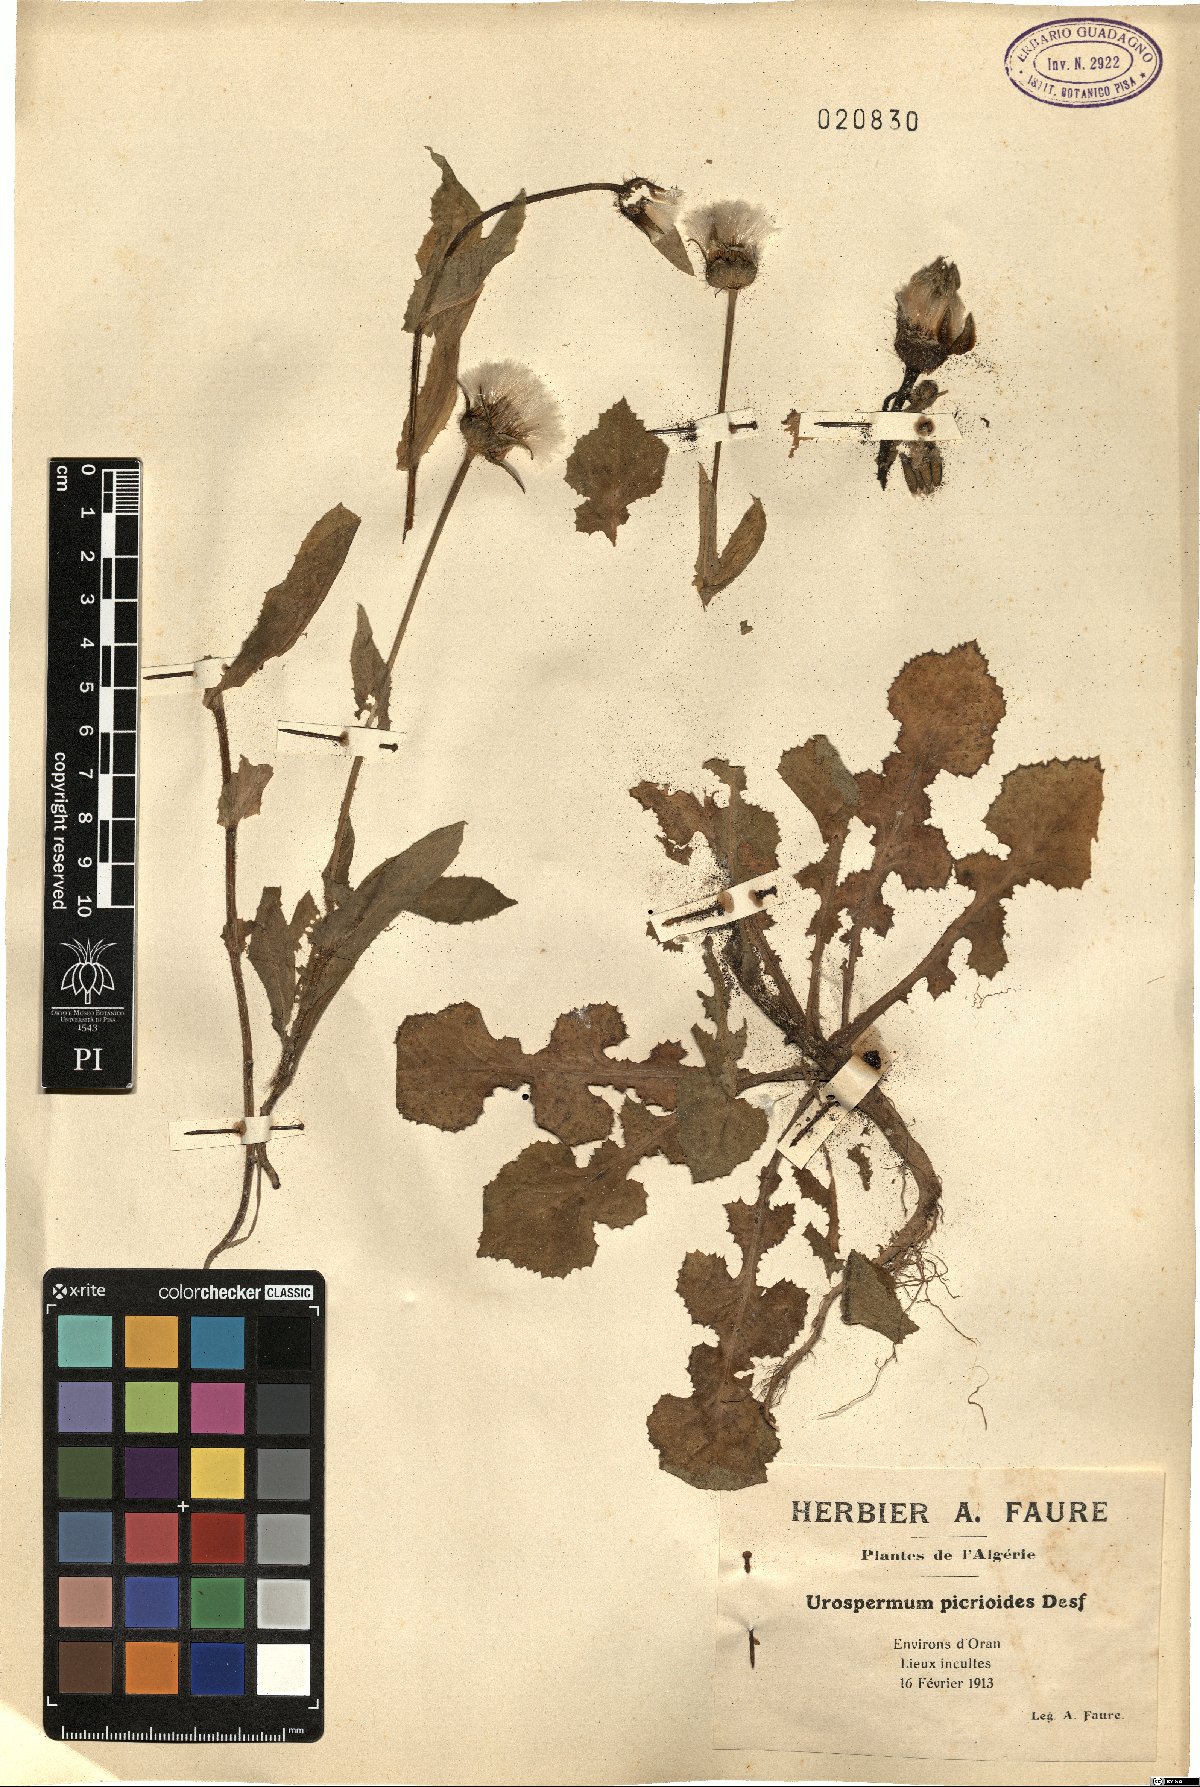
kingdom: Plantae
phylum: Tracheophyta
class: Magnoliopsida
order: Asterales
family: Asteraceae
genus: Urospermum
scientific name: Urospermum picroides
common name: False hawkbit
